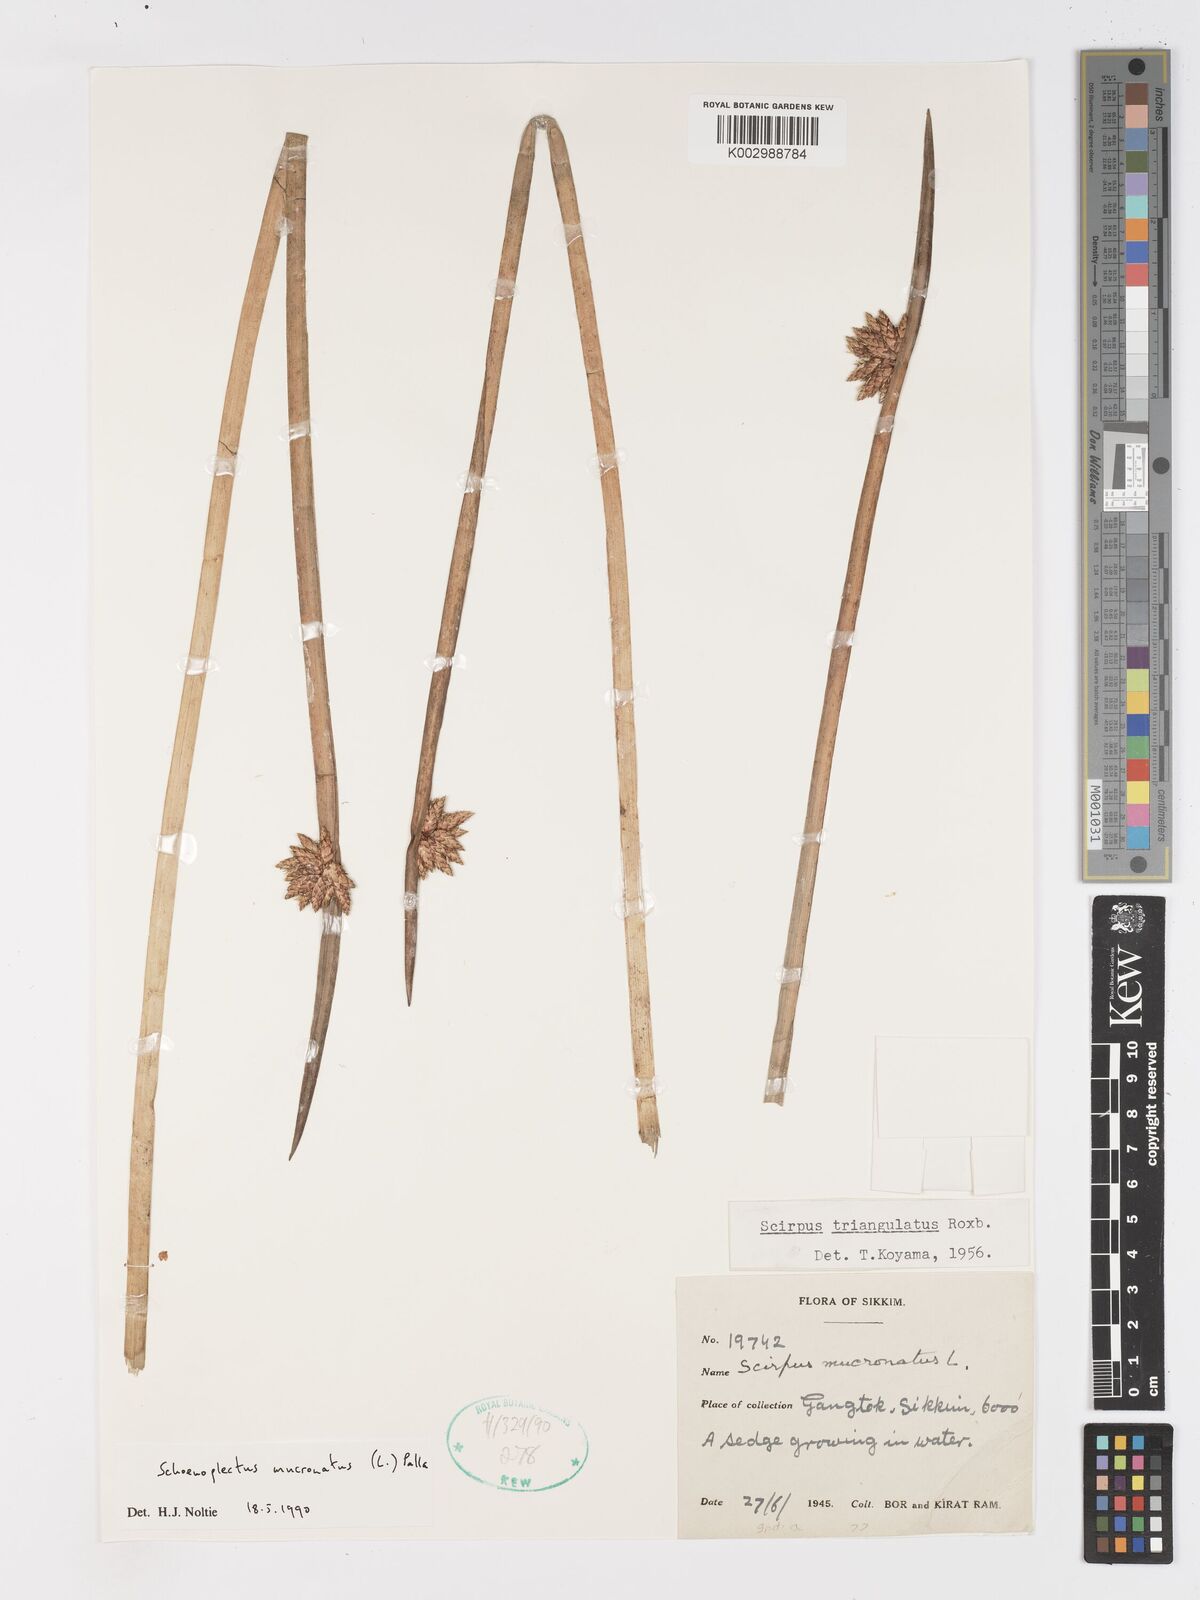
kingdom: Plantae
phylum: Tracheophyta
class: Liliopsida
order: Poales
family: Cyperaceae
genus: Schoenoplectiella
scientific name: Schoenoplectiella mucronata
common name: Bog bulrush
